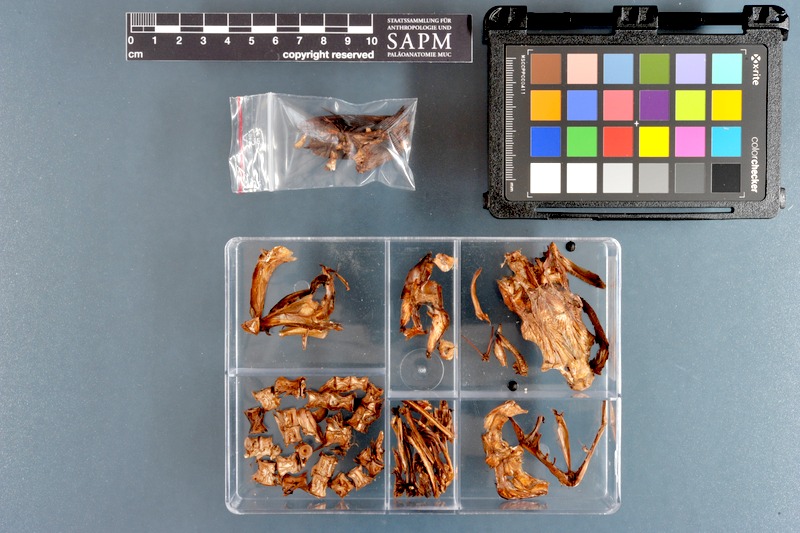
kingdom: Animalia
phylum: Chordata
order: Perciformes
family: Rachycentridae
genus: Rachycentron
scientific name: Rachycentron canadum
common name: Cobia
